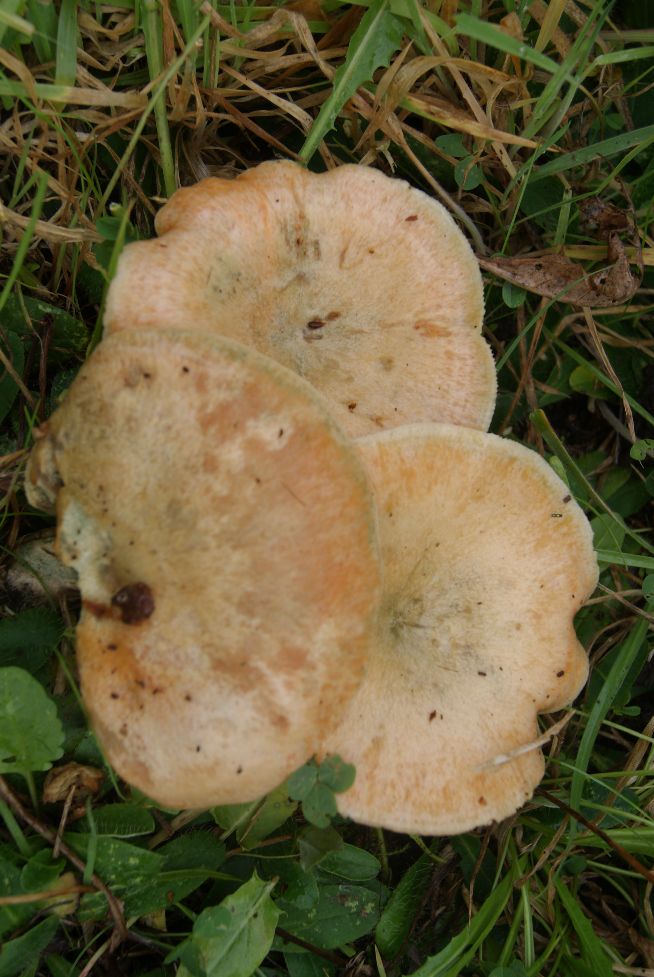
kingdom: Fungi
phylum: Basidiomycota
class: Agaricomycetes
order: Russulales
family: Russulaceae
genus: Lactarius
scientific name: Lactarius deterrimus
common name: gran-mælkehat
